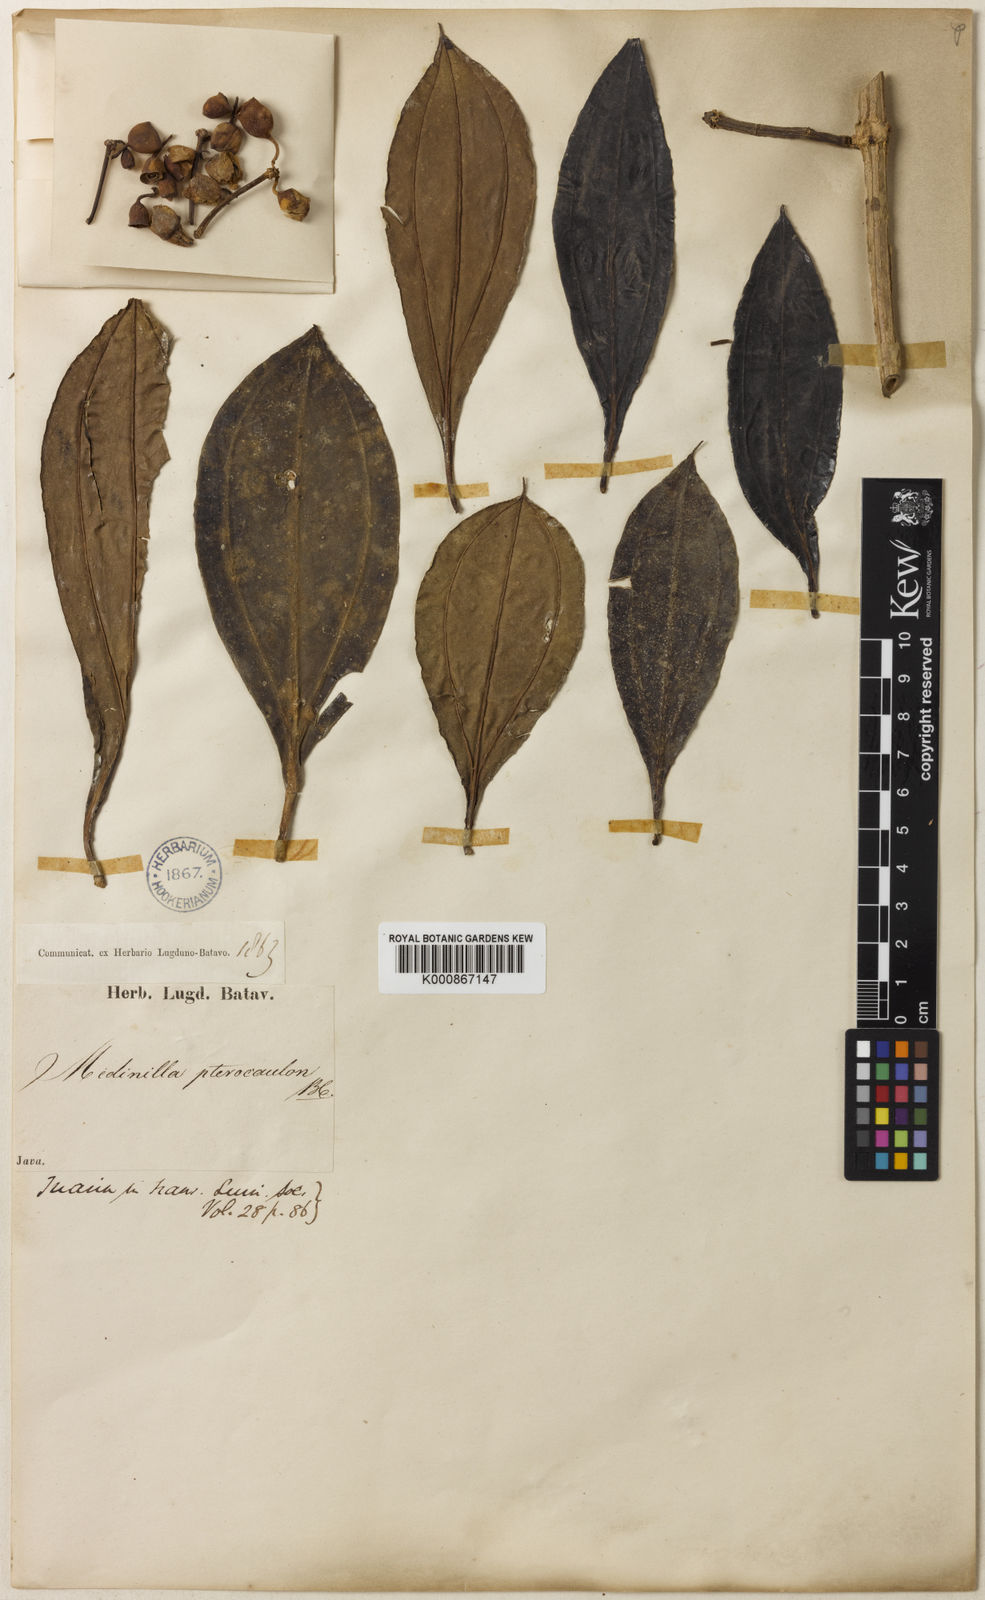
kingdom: Plantae
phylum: Tracheophyta
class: Magnoliopsida
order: Myrtales
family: Melastomataceae
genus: Medinilla
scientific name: Medinilla pterocaula
